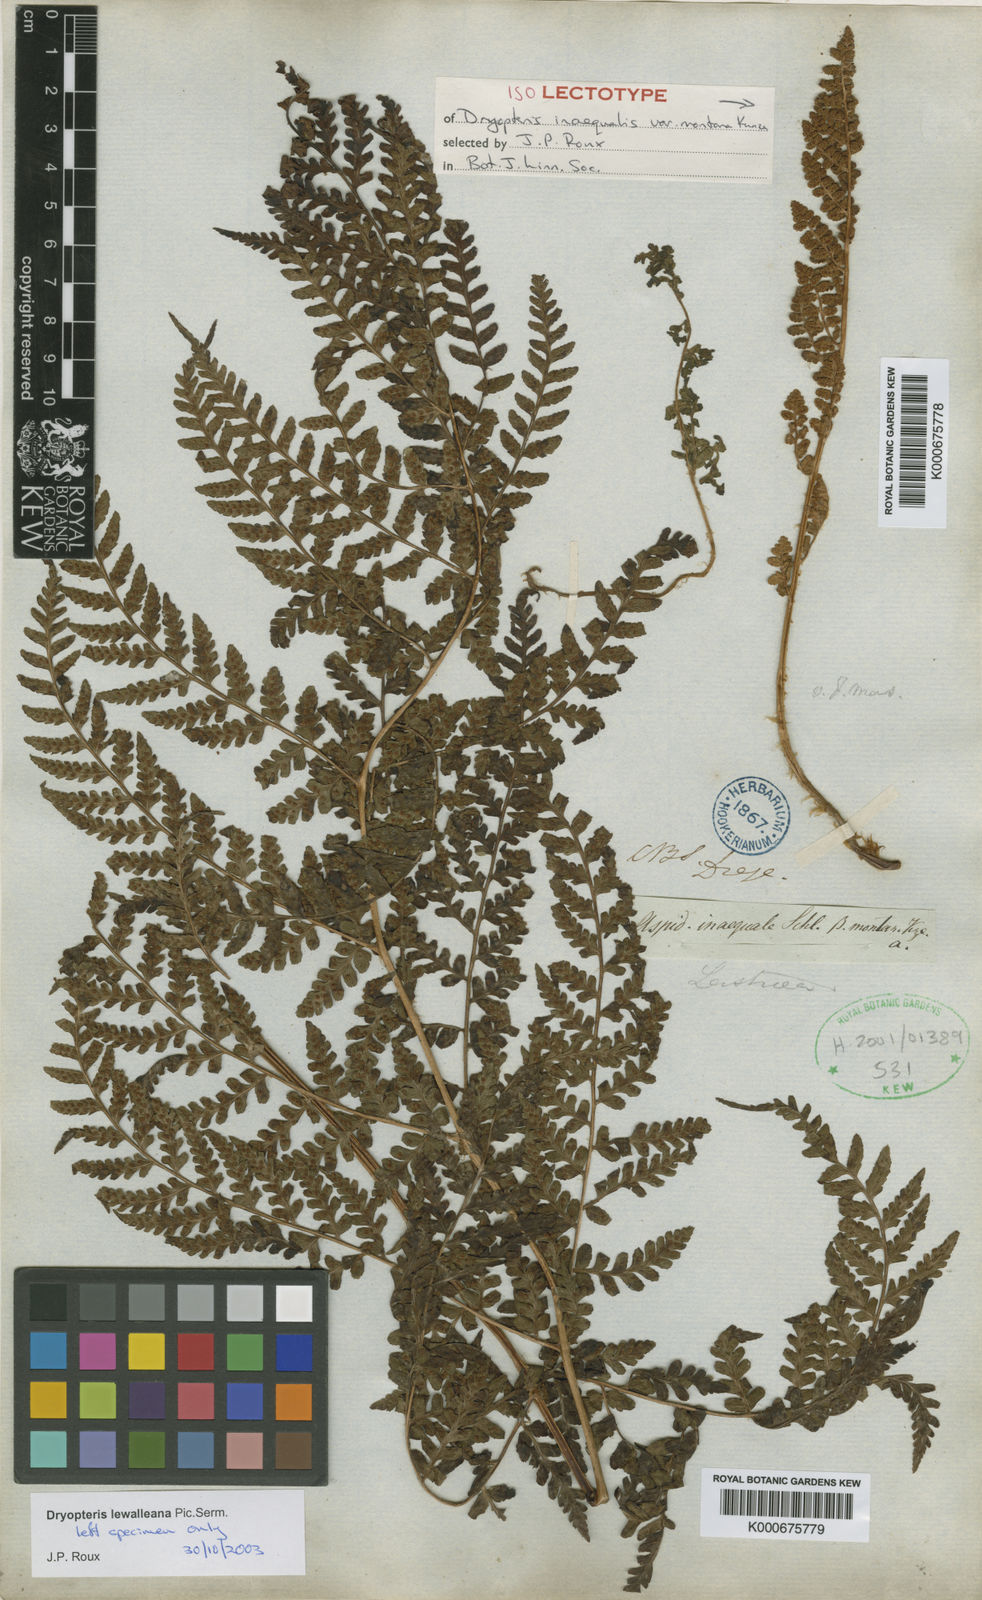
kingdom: Plantae
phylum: Tracheophyta
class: Polypodiopsida
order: Polypodiales
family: Dryopteridaceae
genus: Dryopteris
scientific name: Dryopteris inaequalis
